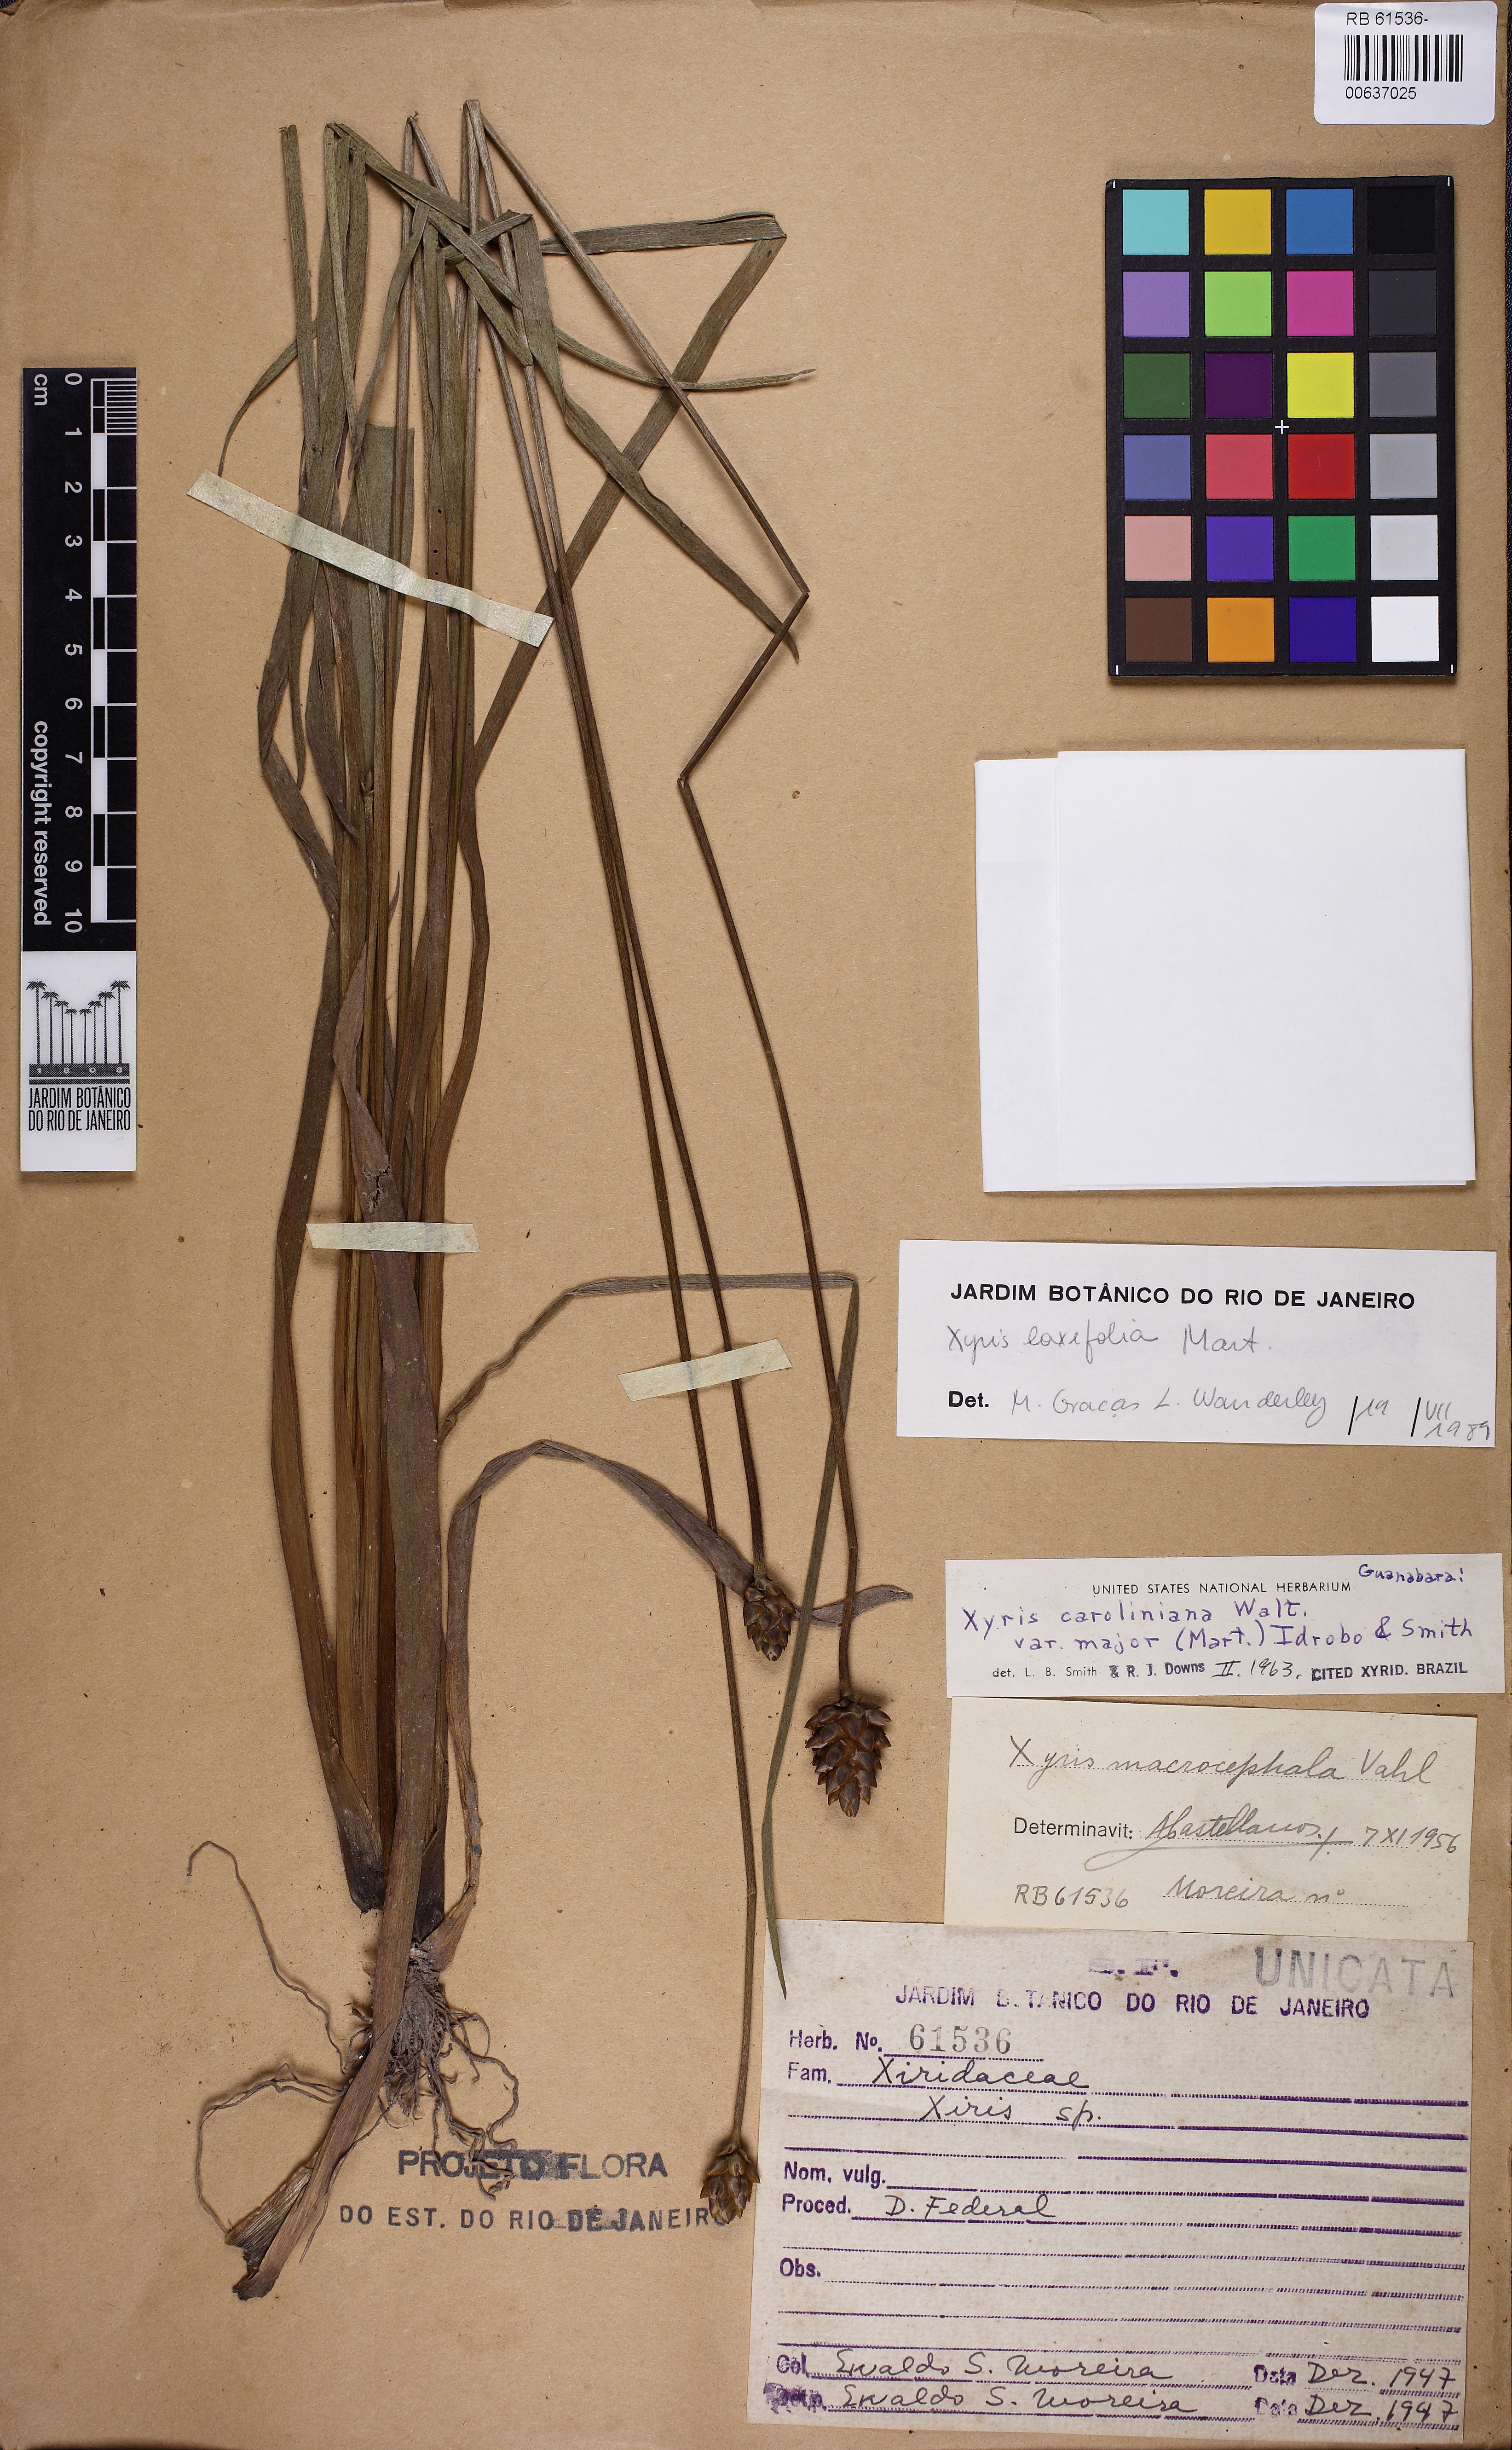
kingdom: Plantae
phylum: Tracheophyta
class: Liliopsida
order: Poales
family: Xyridaceae
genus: Xyris
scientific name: Xyris jupicai
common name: Richard's yelloweyed grass
